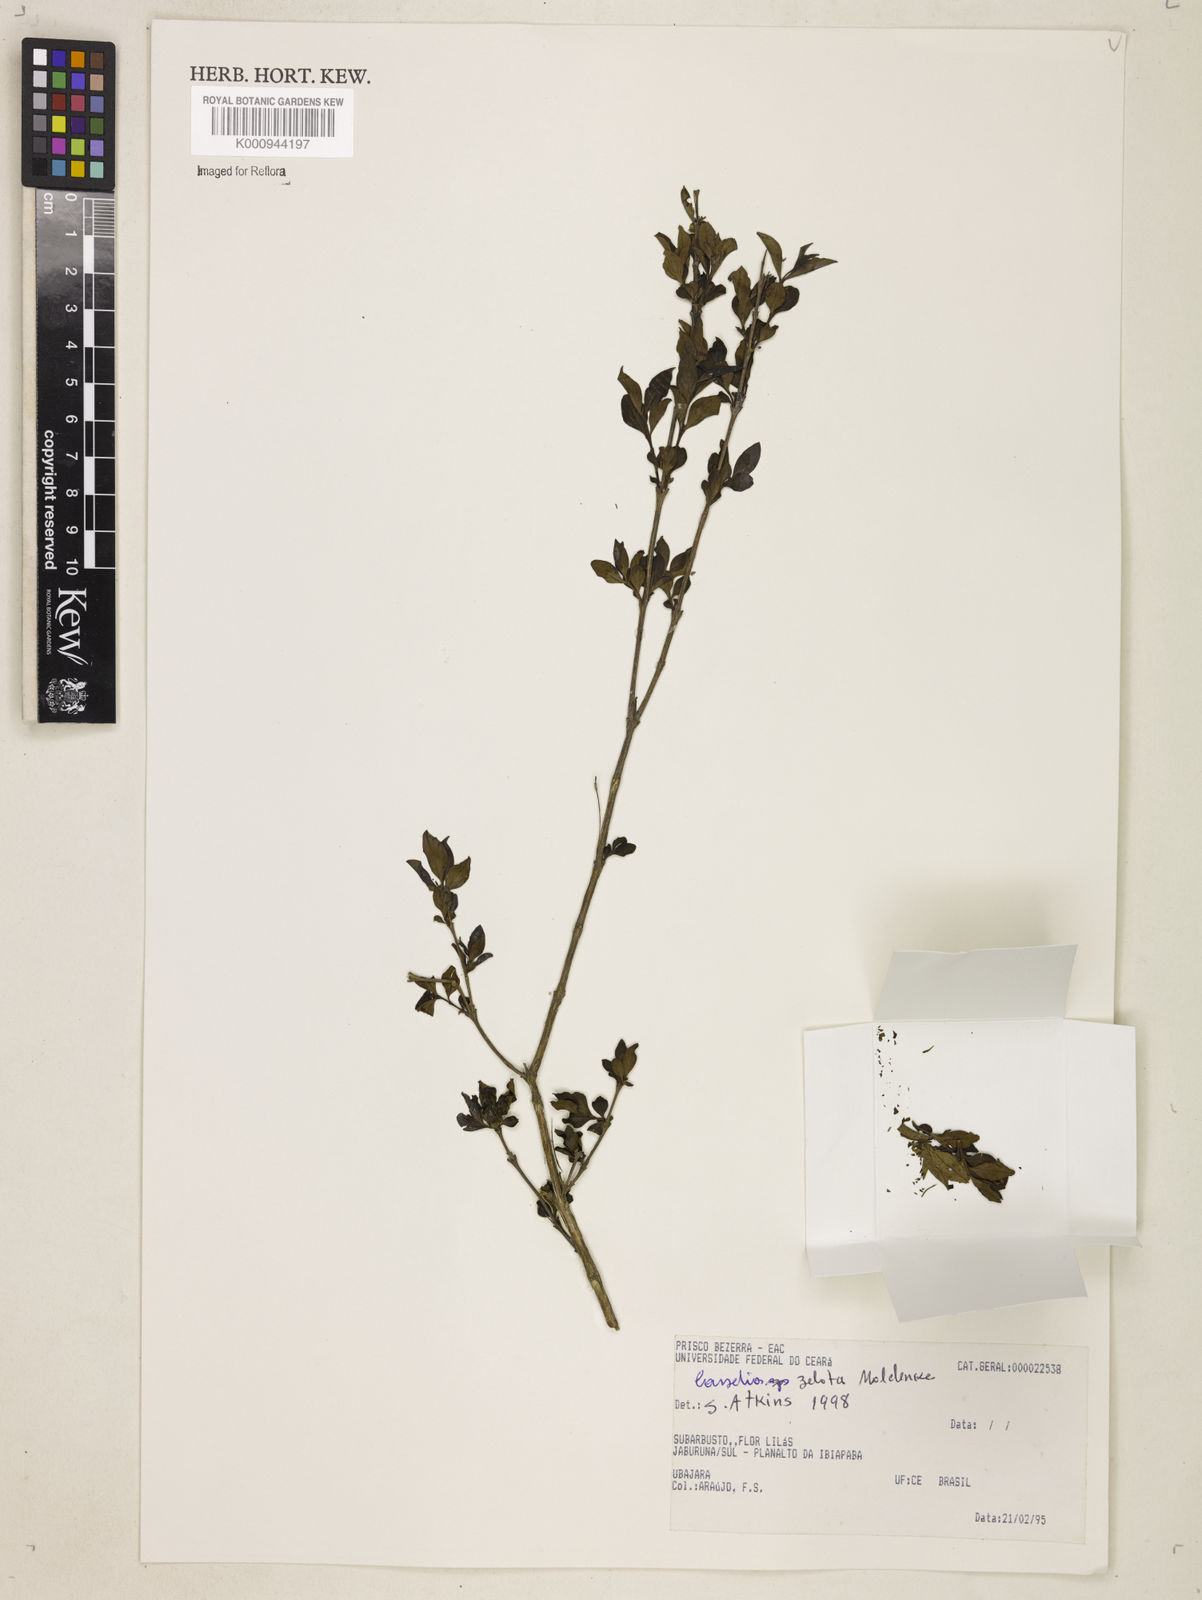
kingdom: Plantae
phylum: Tracheophyta
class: Magnoliopsida
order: Lamiales
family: Verbenaceae
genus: Casselia
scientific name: Casselia zelota
